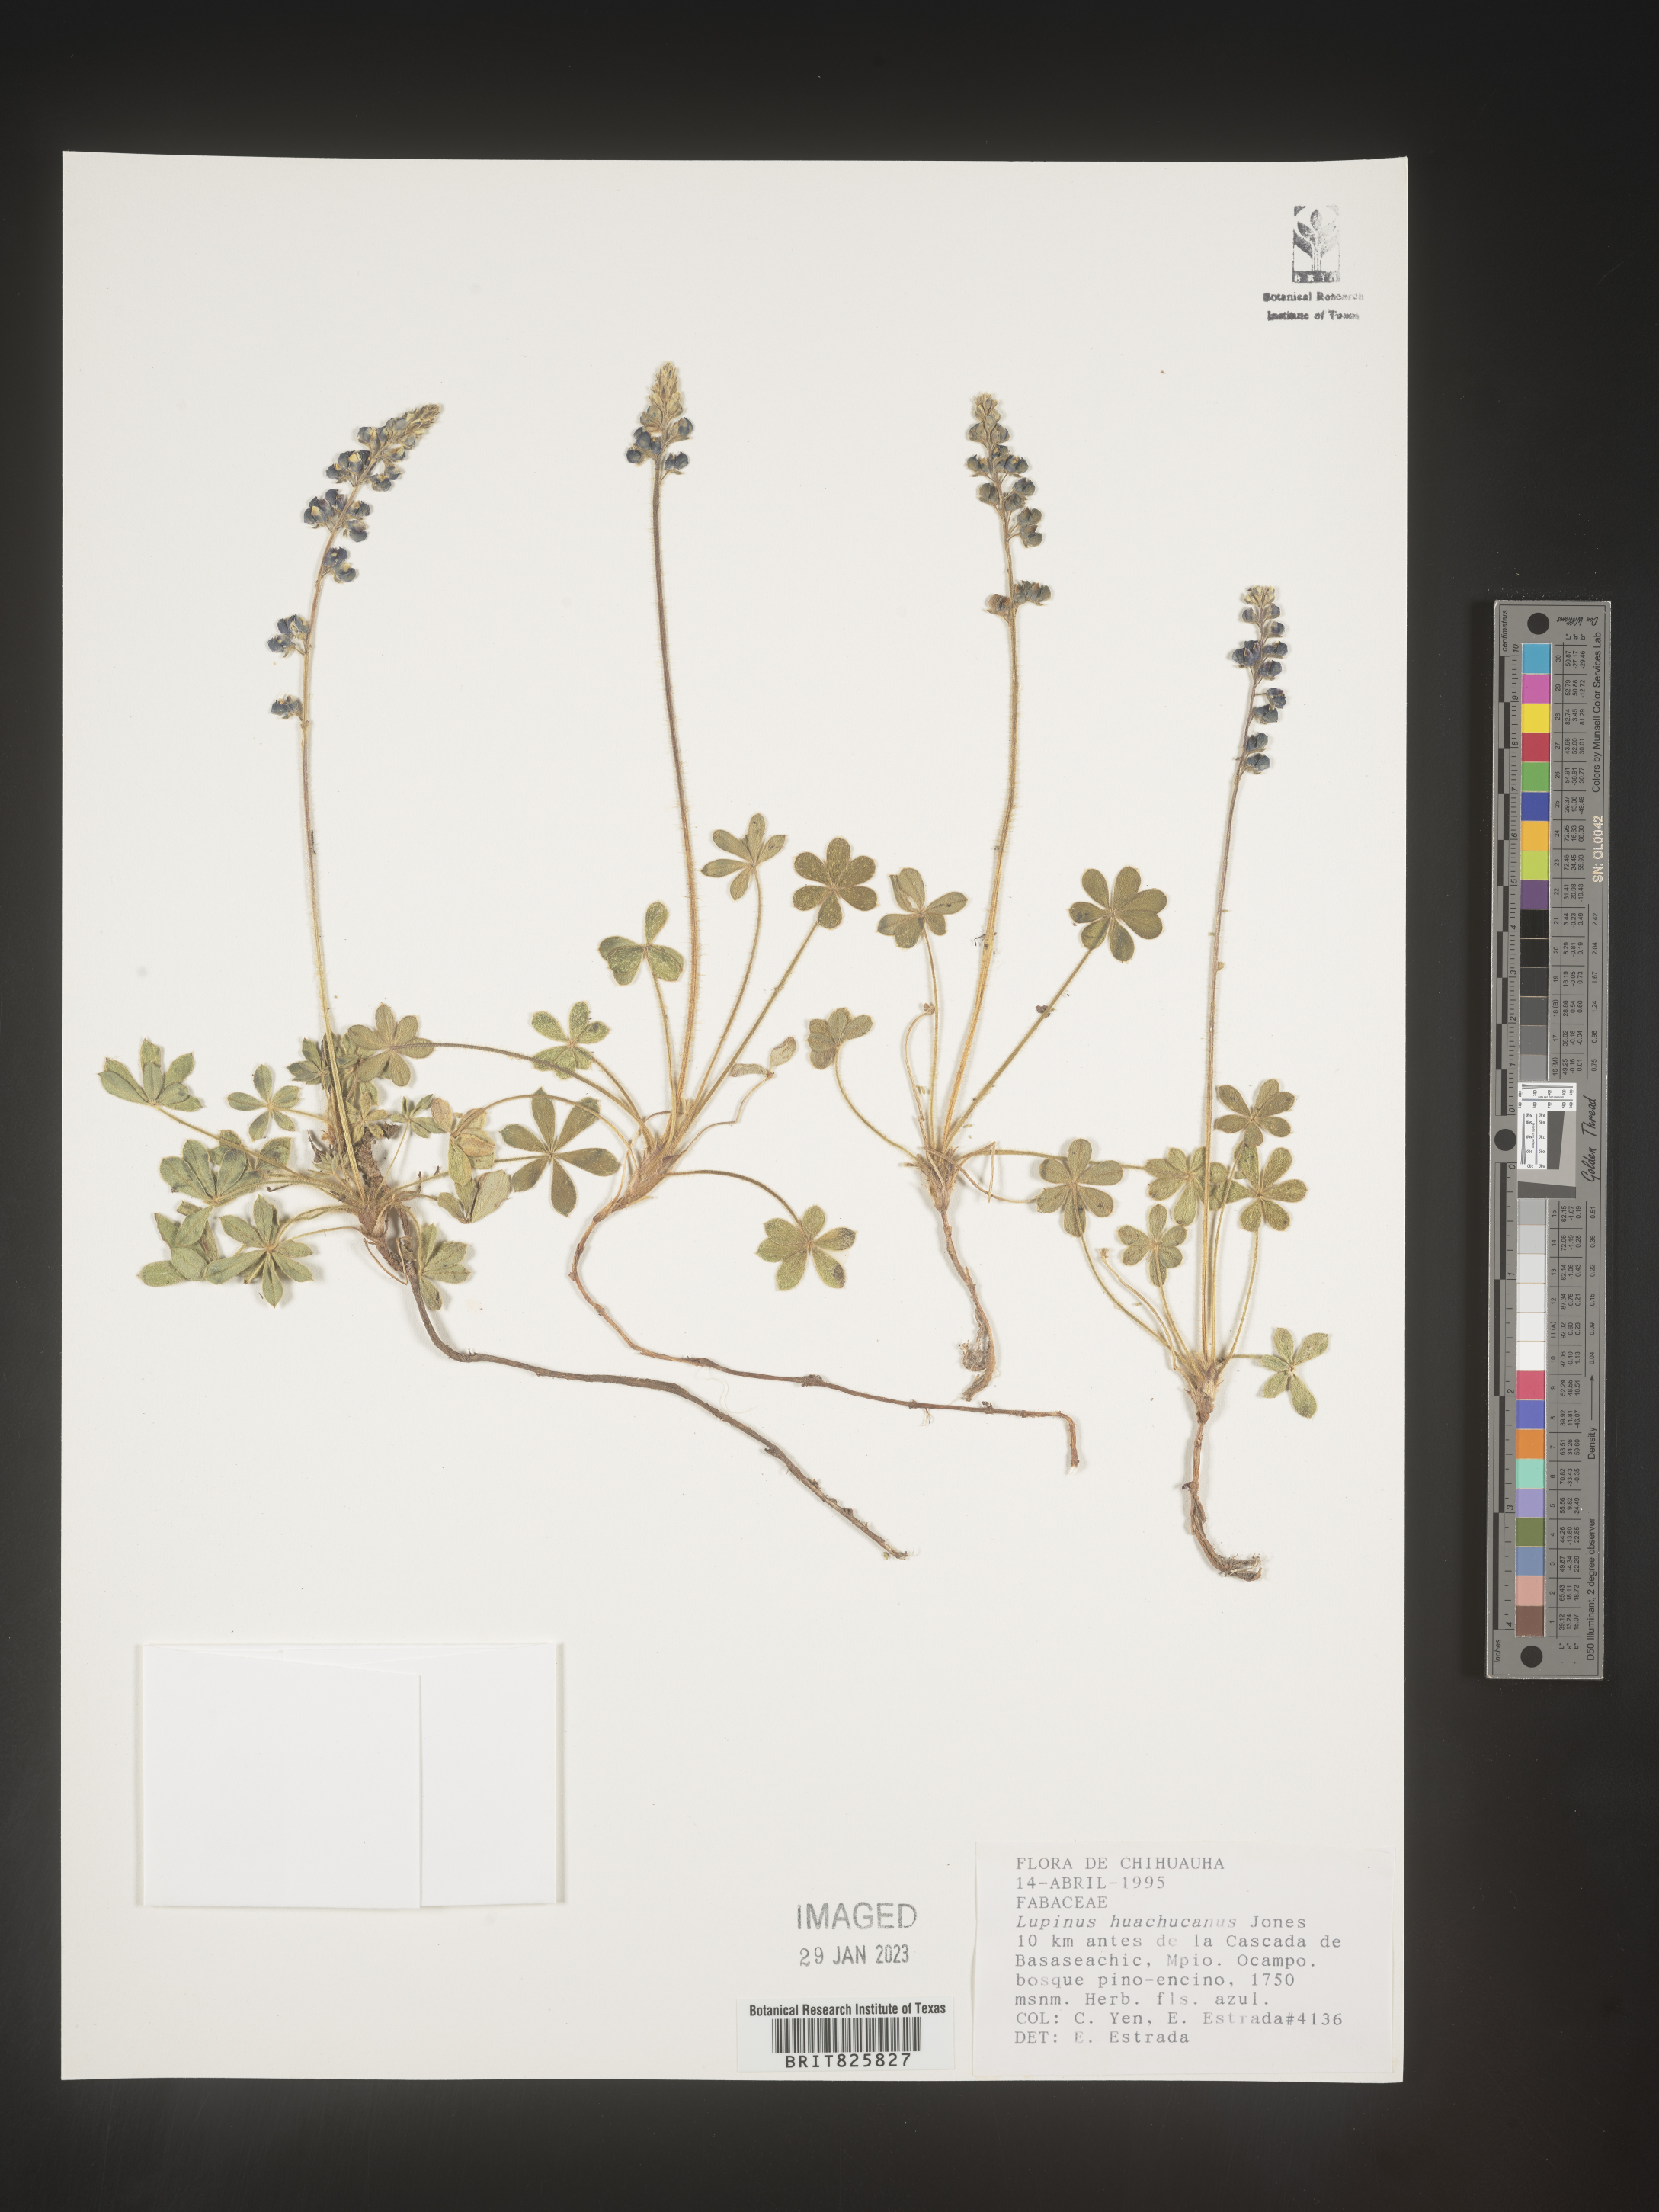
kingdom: Plantae
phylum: Tracheophyta
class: Magnoliopsida
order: Fabales
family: Fabaceae
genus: Lupinus
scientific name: Lupinus
